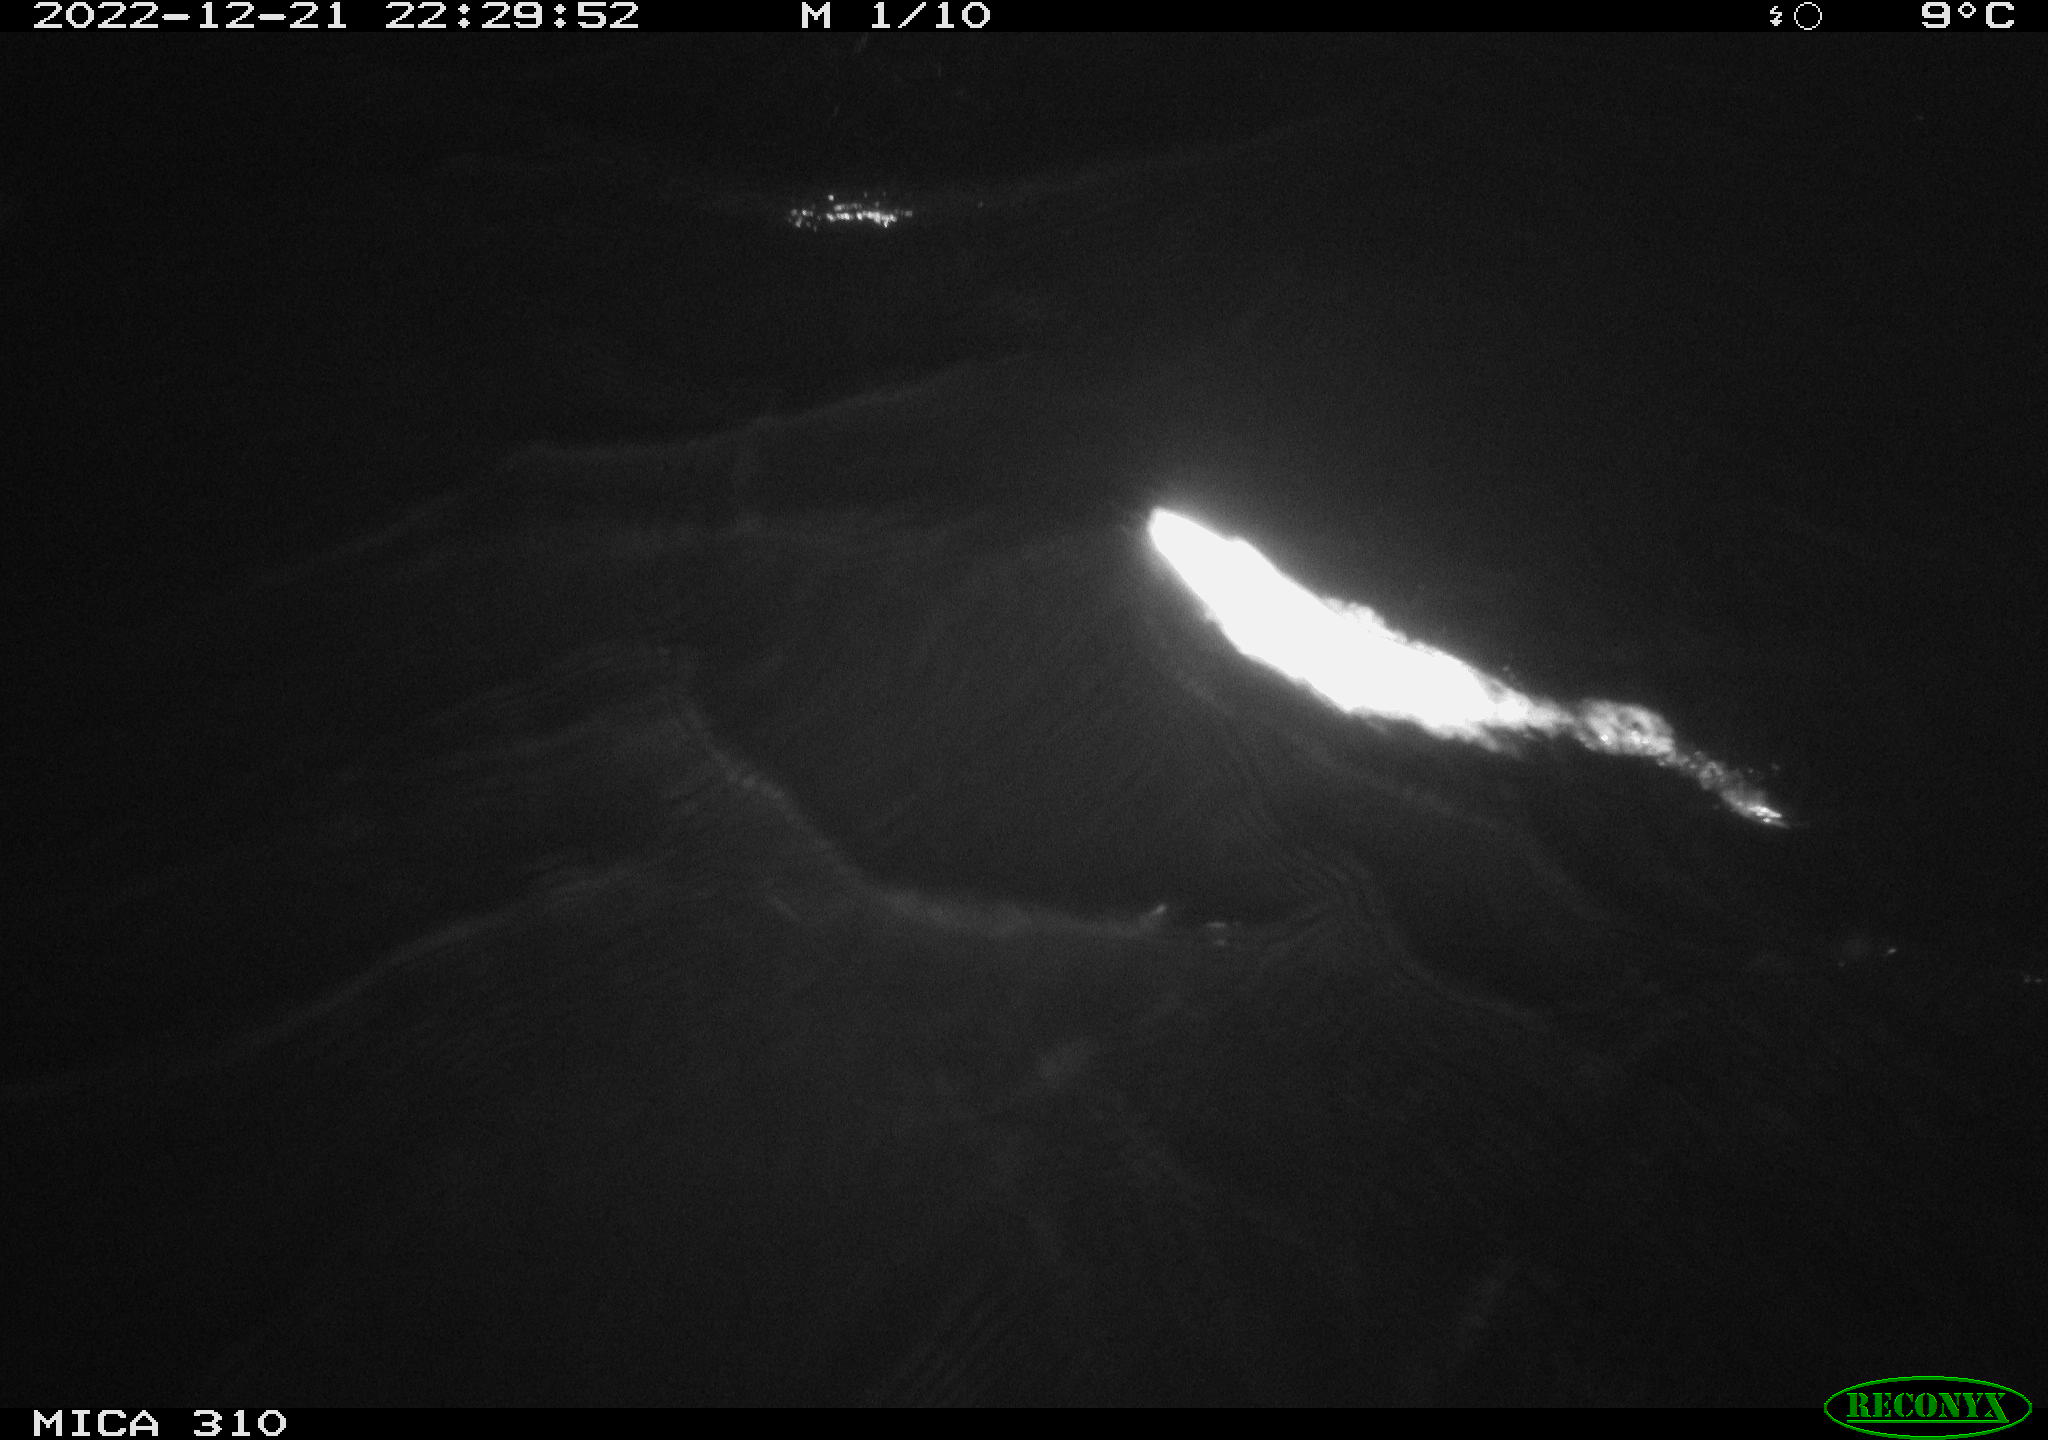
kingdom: Animalia
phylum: Chordata
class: Mammalia
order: Rodentia
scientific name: Rodentia
